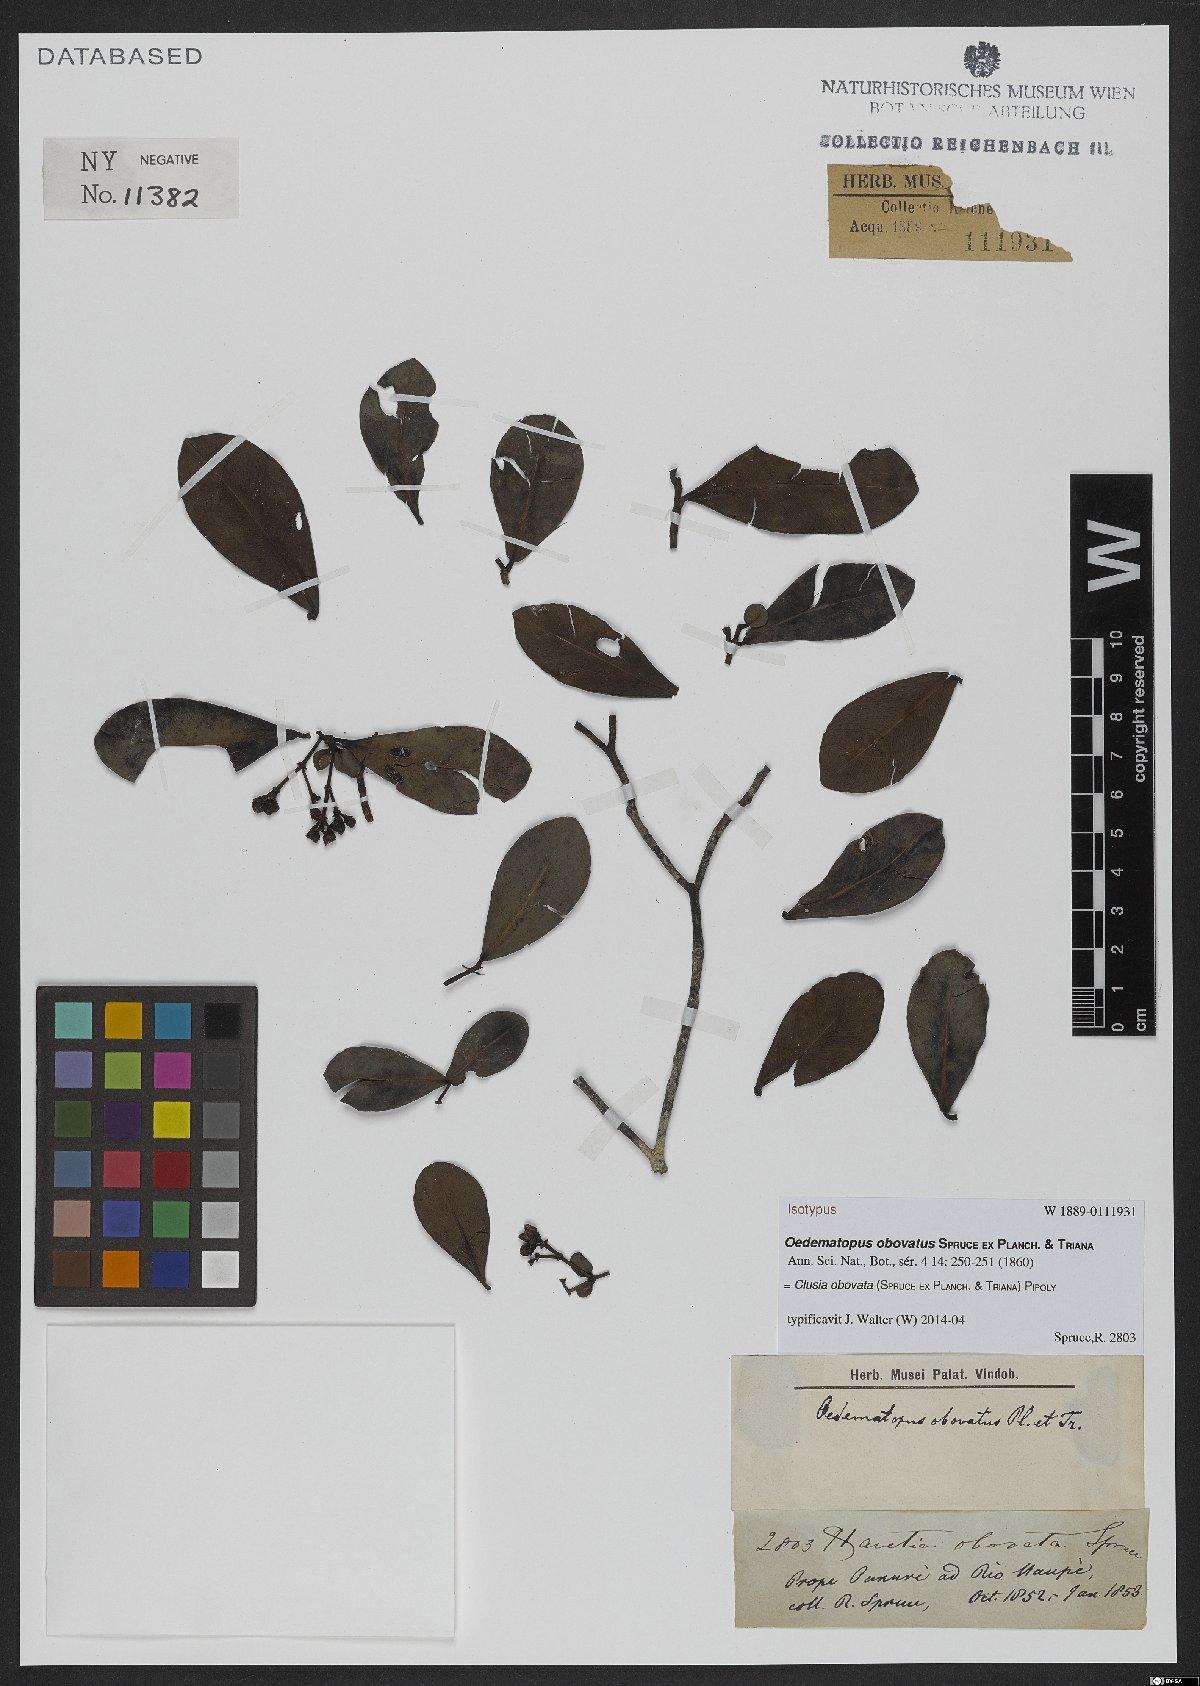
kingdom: Plantae
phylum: Tracheophyta
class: Magnoliopsida
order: Malpighiales
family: Clusiaceae
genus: Clusia
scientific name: Clusia obovata
